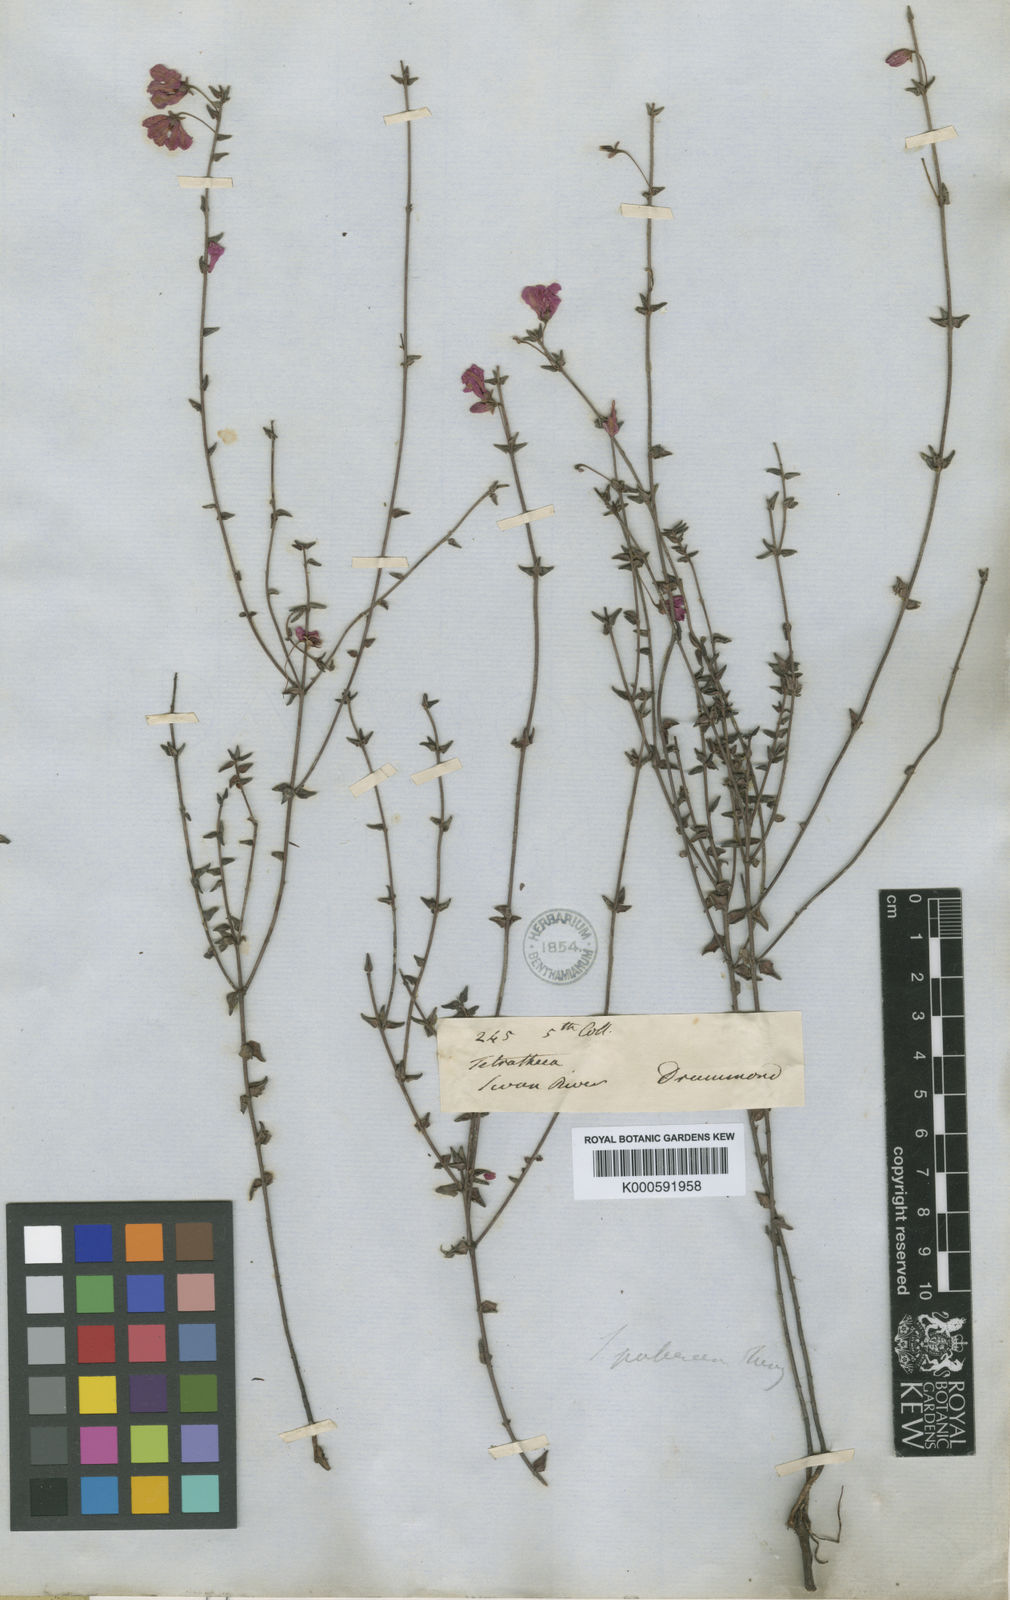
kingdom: Plantae
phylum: Tracheophyta
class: Magnoliopsida
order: Oxalidales
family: Elaeocarpaceae
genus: Tetratheca
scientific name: Tetratheca pubescens
